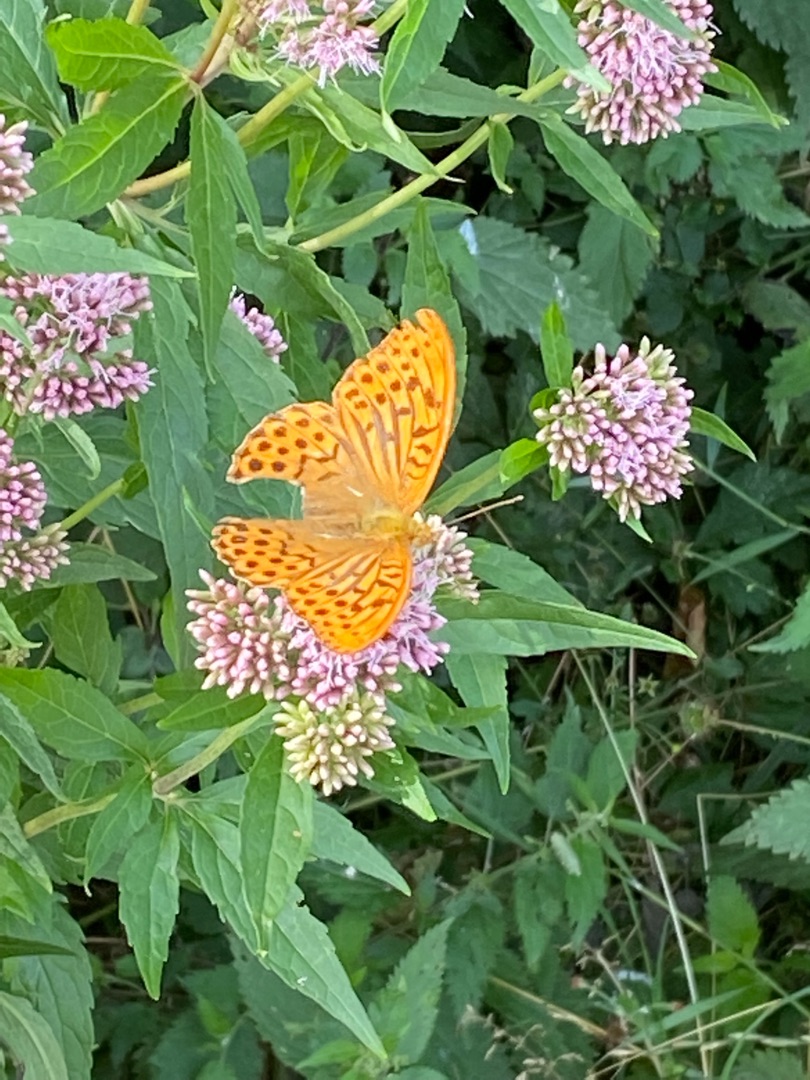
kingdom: Animalia
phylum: Arthropoda
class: Insecta
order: Lepidoptera
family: Nymphalidae
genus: Argynnis
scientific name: Argynnis paphia
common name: Kejserkåbe
